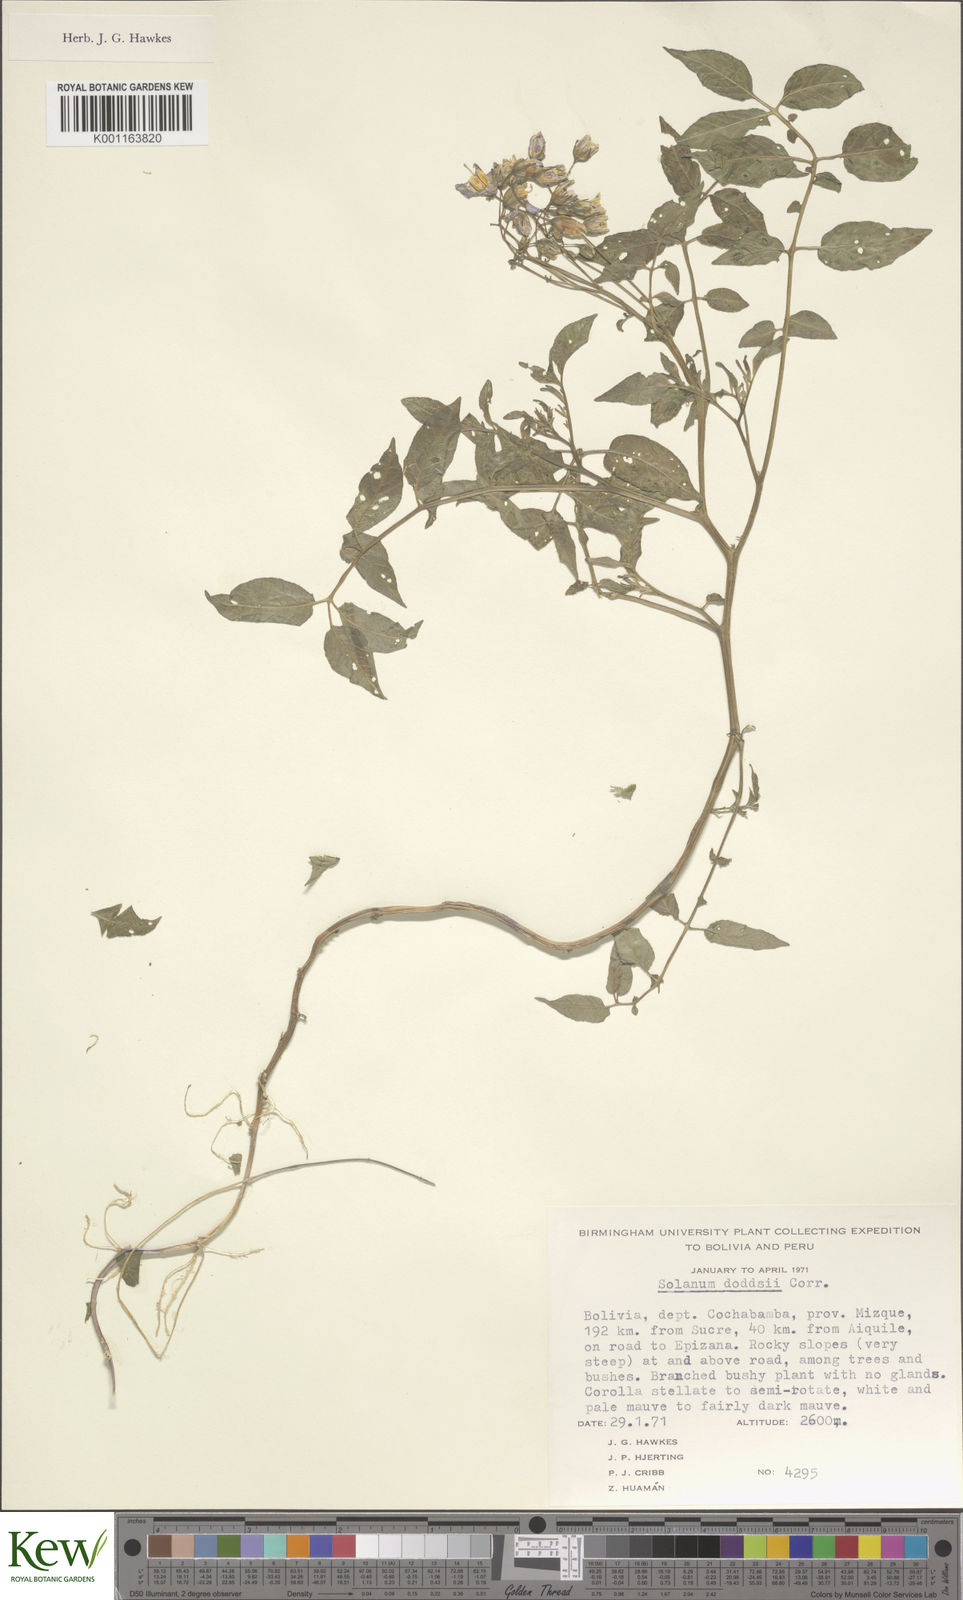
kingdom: Plantae
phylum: Tracheophyta
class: Magnoliopsida
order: Solanales
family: Solanaceae
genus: Solanum
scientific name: Solanum doddsii
